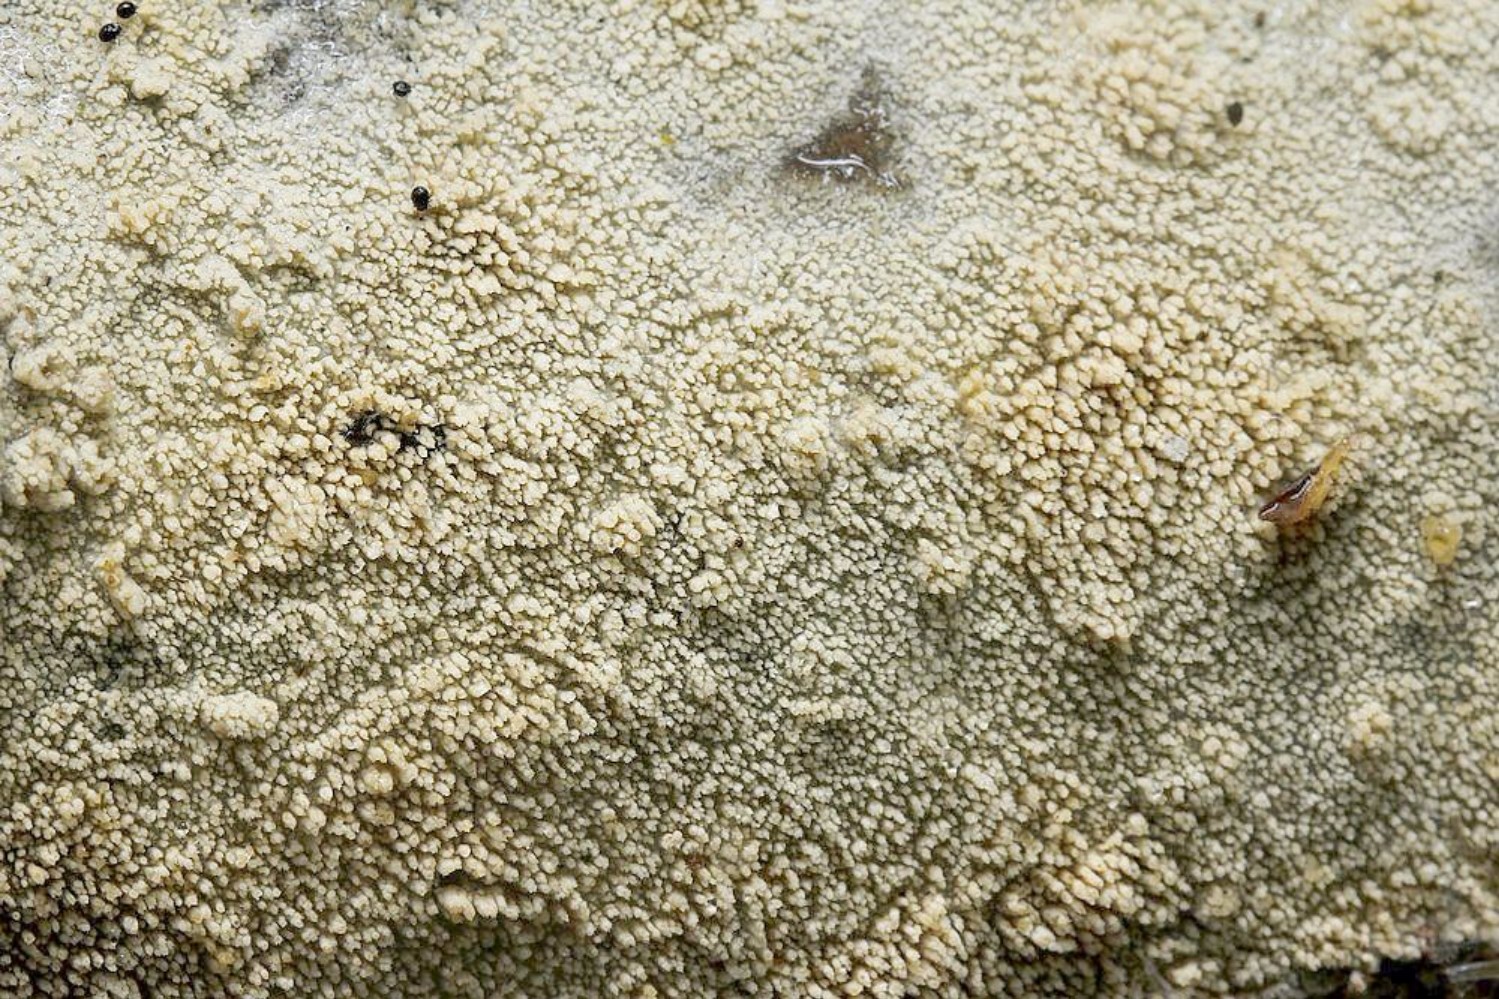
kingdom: Fungi
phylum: Basidiomycota
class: Agaricomycetes
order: Hymenochaetales
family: Hyphodontiaceae
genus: Hyphodontia
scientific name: Hyphodontia barba-jovis
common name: skægget tandsvamp
